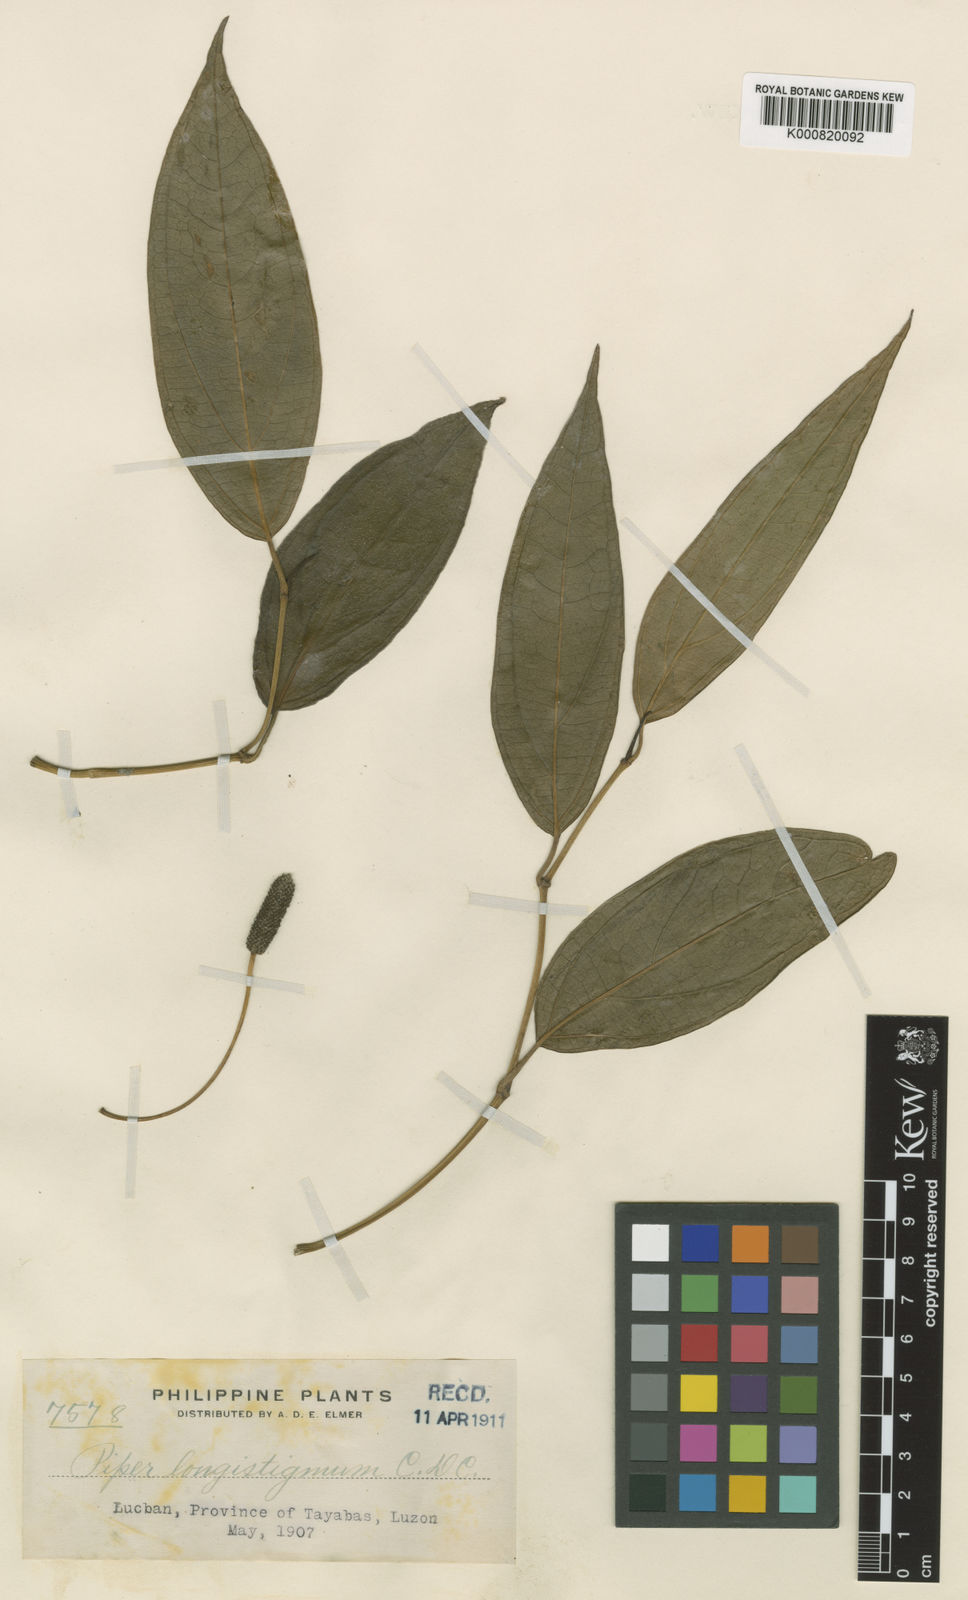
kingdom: Plantae
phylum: Tracheophyta
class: Magnoliopsida
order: Piperales
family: Piperaceae
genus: Piper
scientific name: Piper longistigmum
